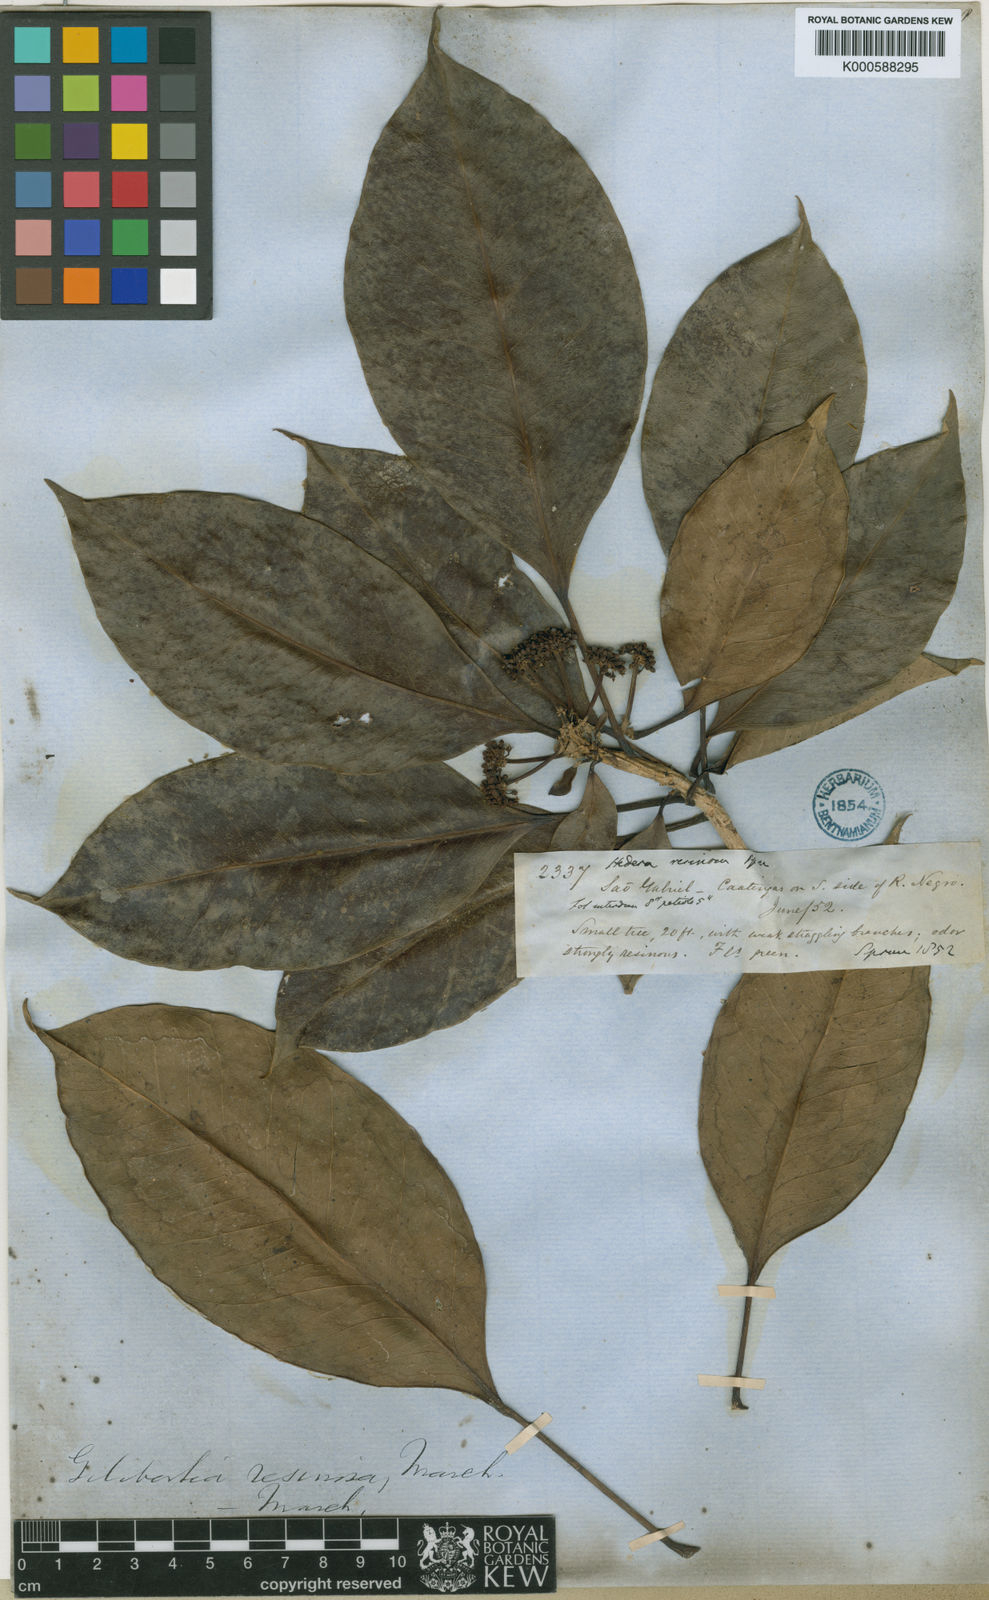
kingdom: Plantae
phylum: Tracheophyta
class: Magnoliopsida
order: Apiales
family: Araliaceae
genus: Dendropanax
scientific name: Dendropanax resinosus
